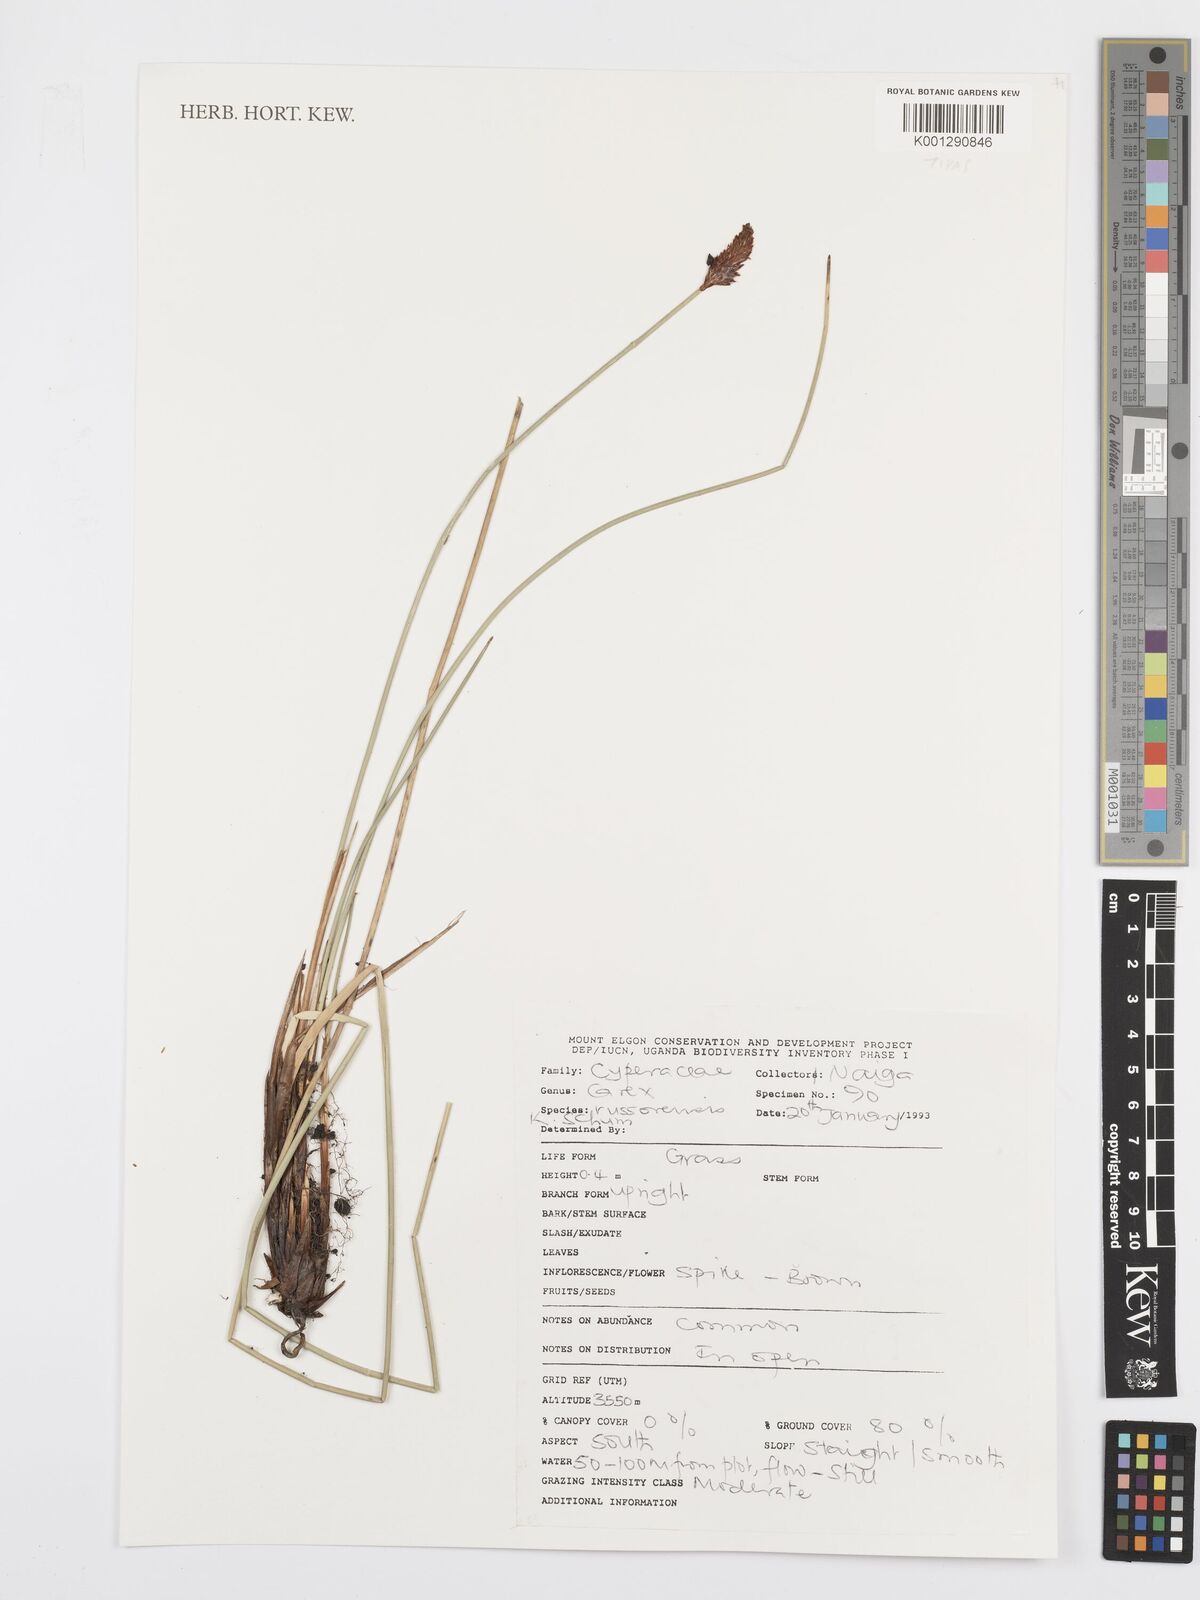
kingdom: Plantae
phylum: Tracheophyta
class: Liliopsida
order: Poales
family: Cyperaceae
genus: Carex
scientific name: Carex runssoroensis
